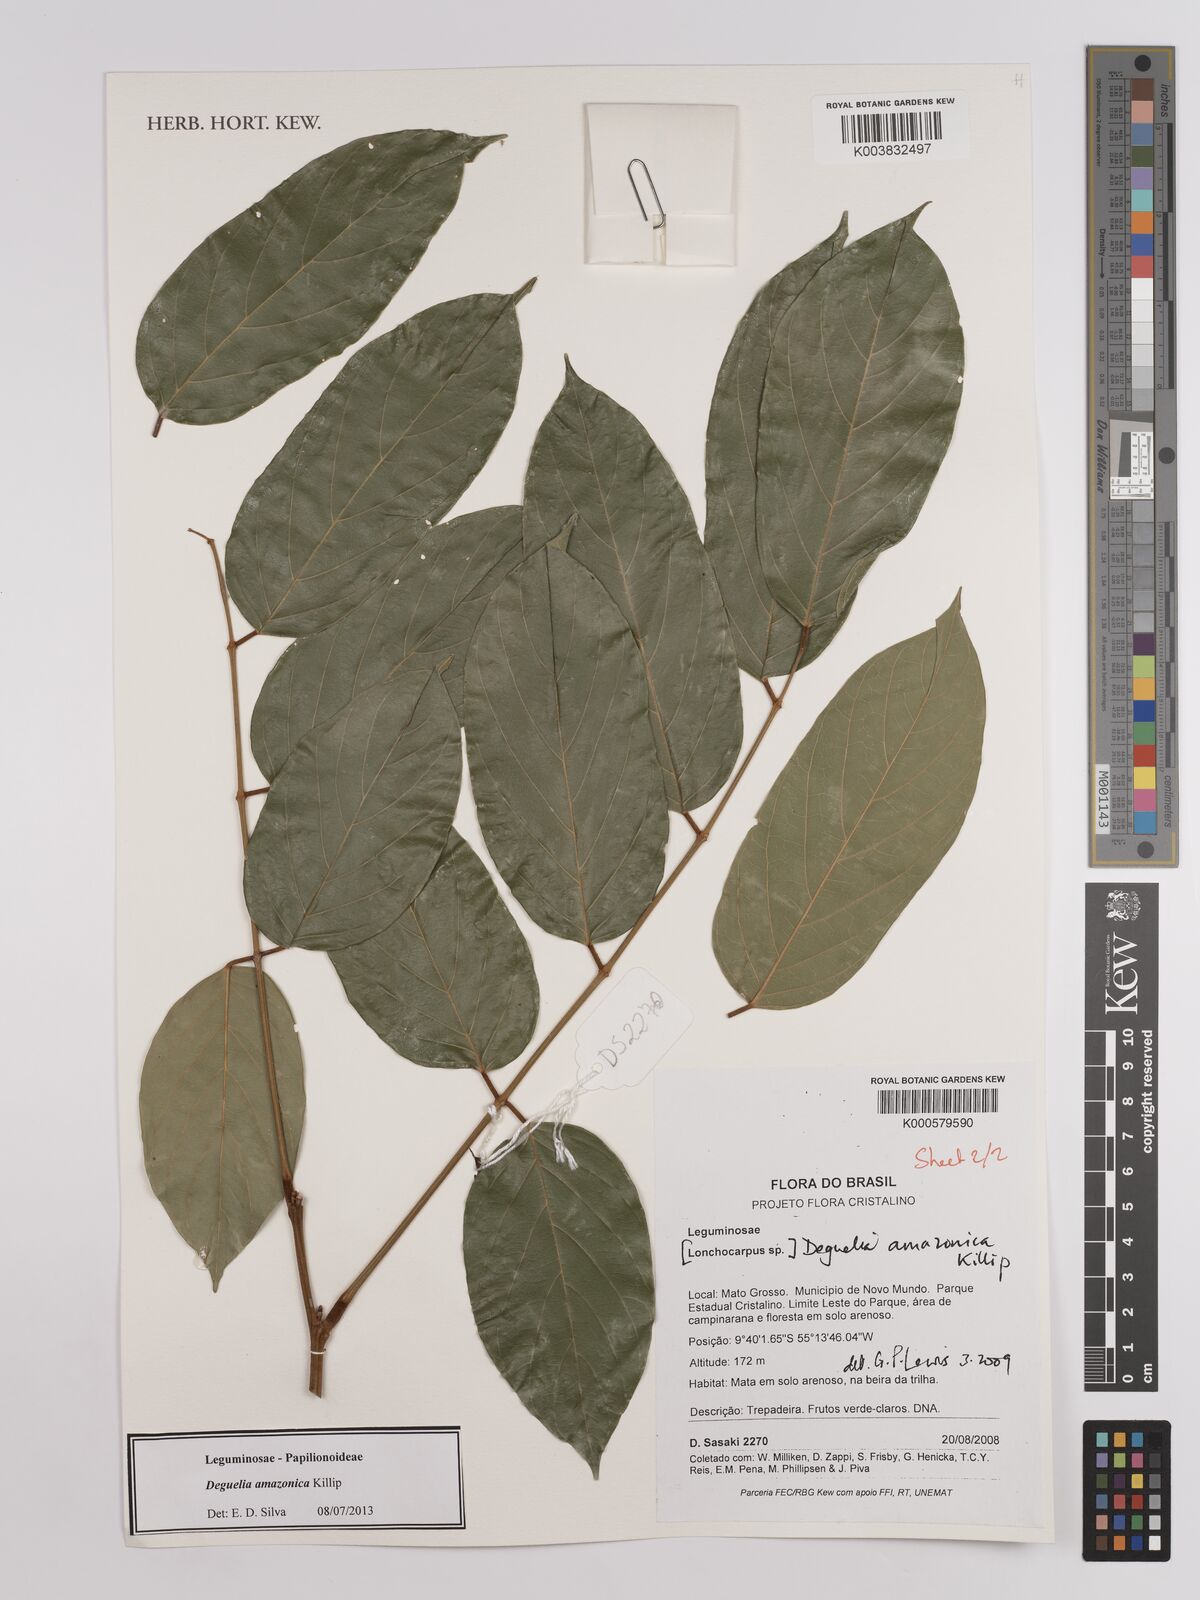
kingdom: Plantae
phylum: Tracheophyta
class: Magnoliopsida
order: Fabales
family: Fabaceae
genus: Deguelia
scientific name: Deguelia amazonica
